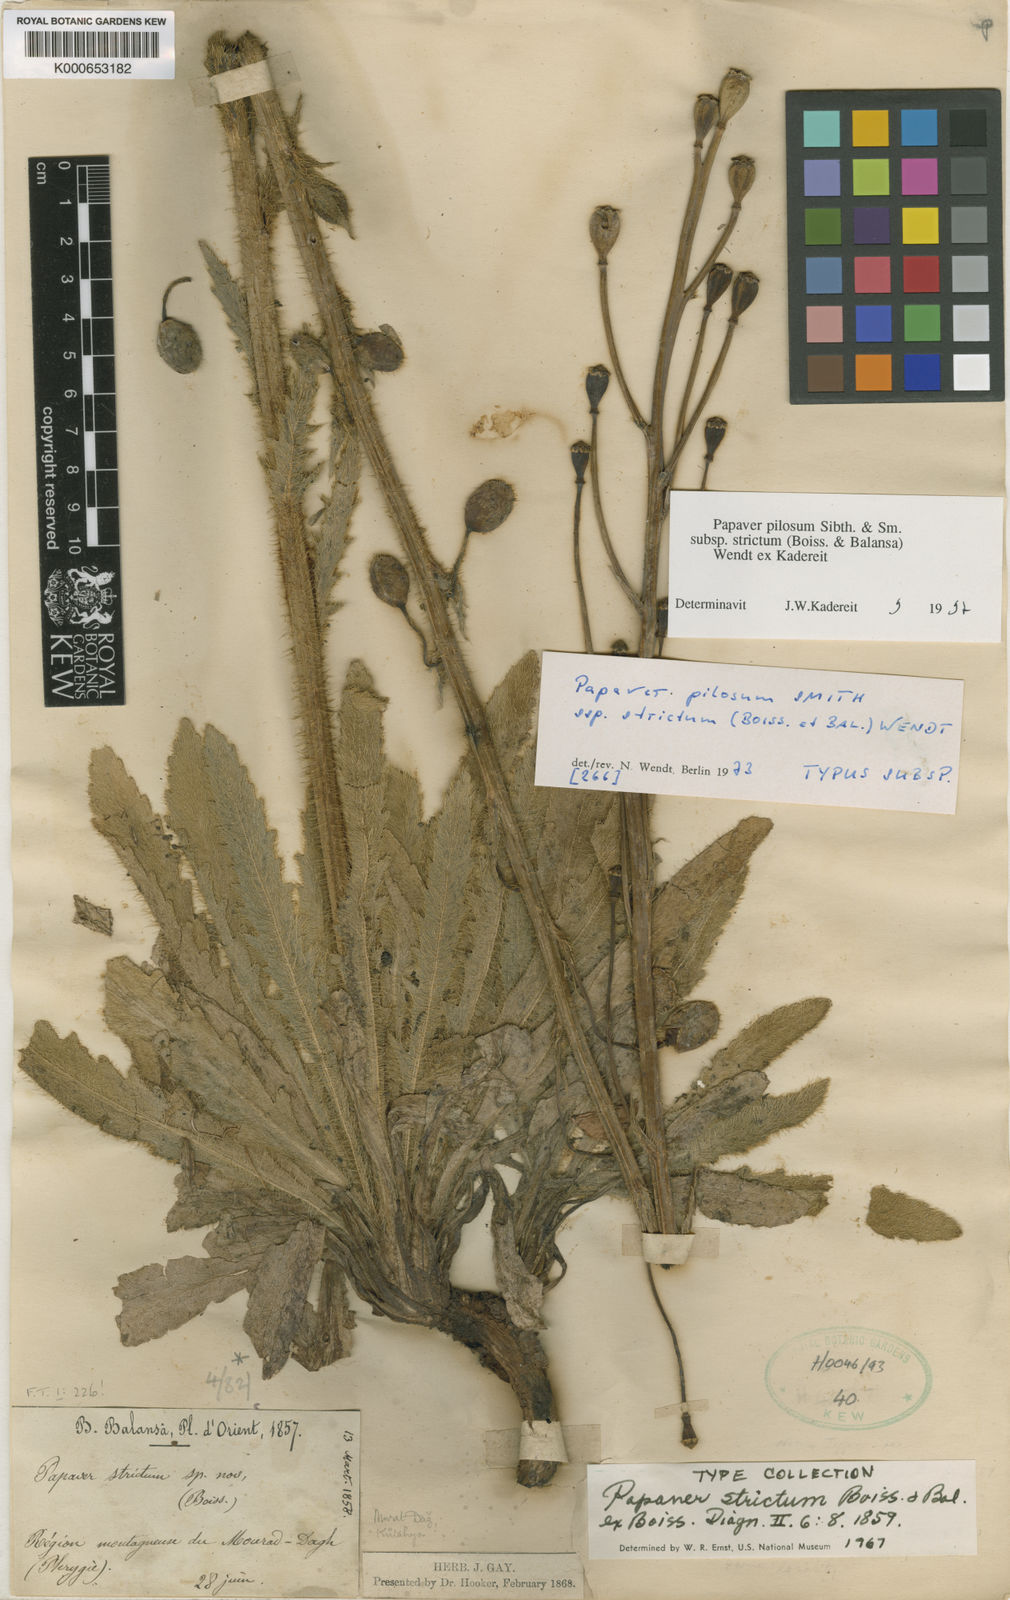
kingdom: Plantae
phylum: Tracheophyta
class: Magnoliopsida
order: Ranunculales
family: Papaveraceae
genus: Papaver
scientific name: Papaver pilosum
